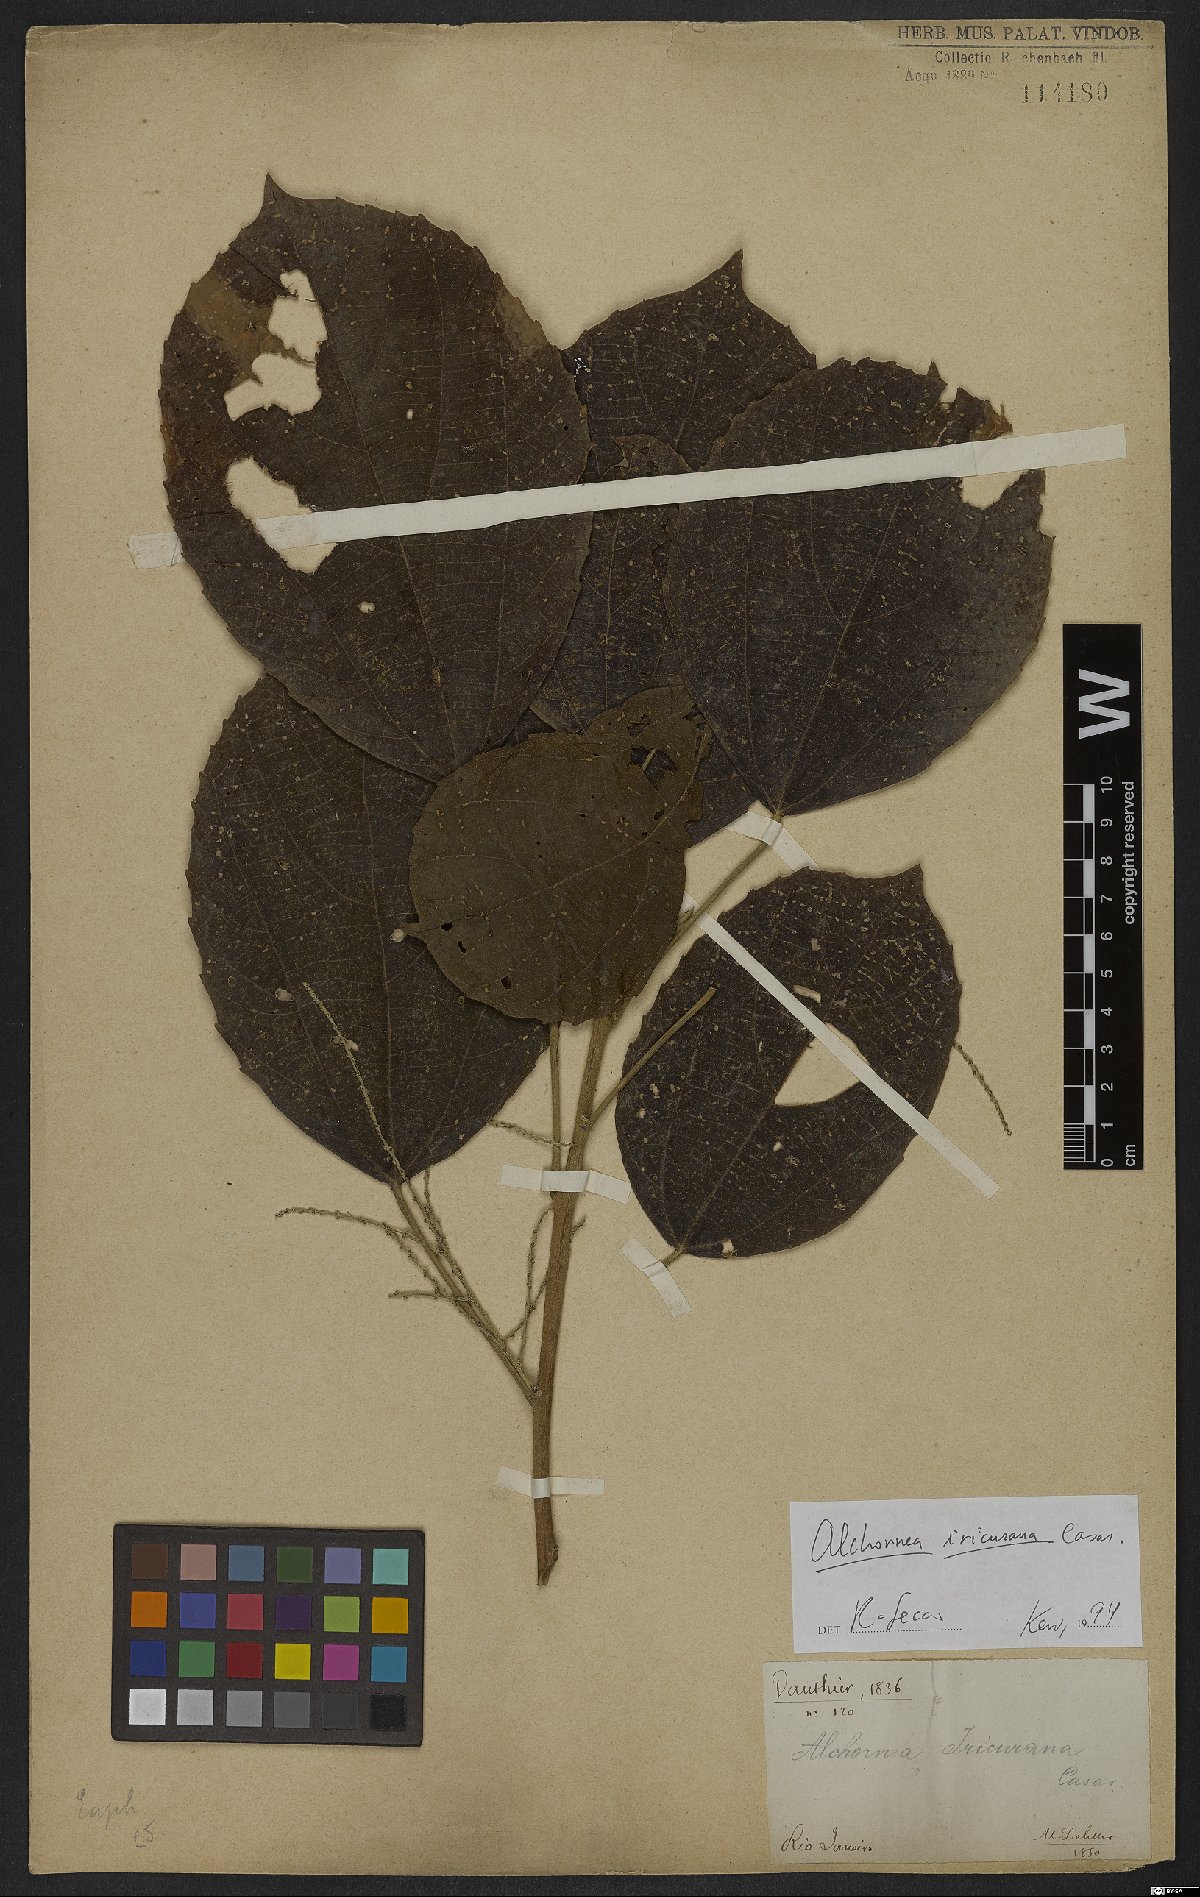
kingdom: Plantae
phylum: Tracheophyta
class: Magnoliopsida
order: Malpighiales
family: Euphorbiaceae
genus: Alchornea
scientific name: Alchornea glandulosa
